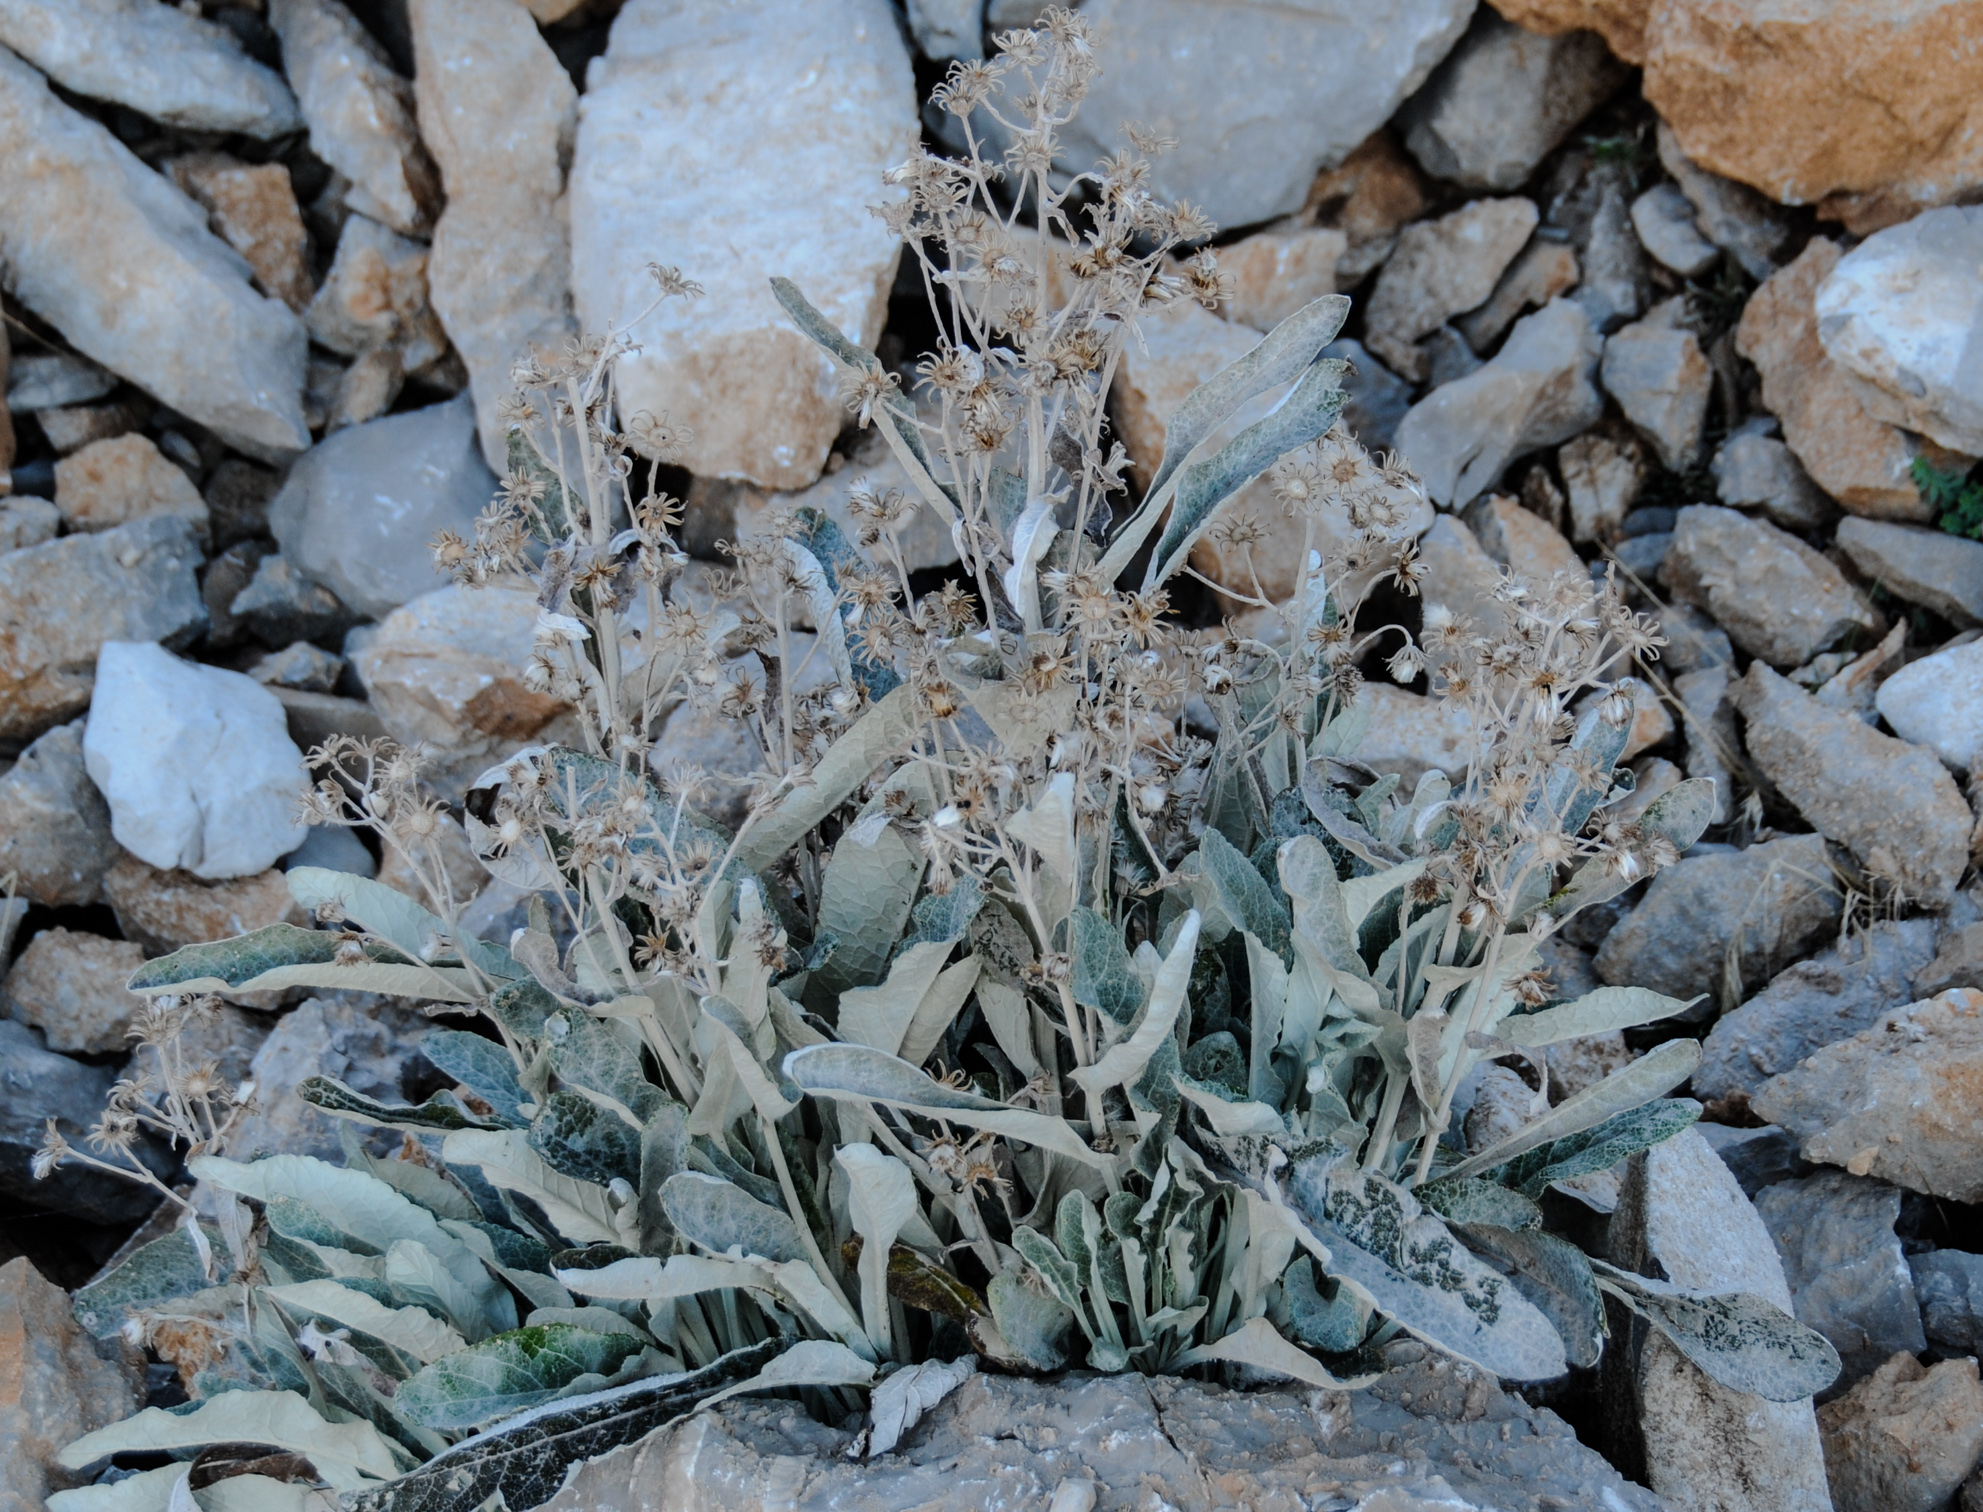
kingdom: Plantae
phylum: Tracheophyta
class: Magnoliopsida
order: Asterales
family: Asteraceae
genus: Senecio
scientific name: Senecio thapsoides
